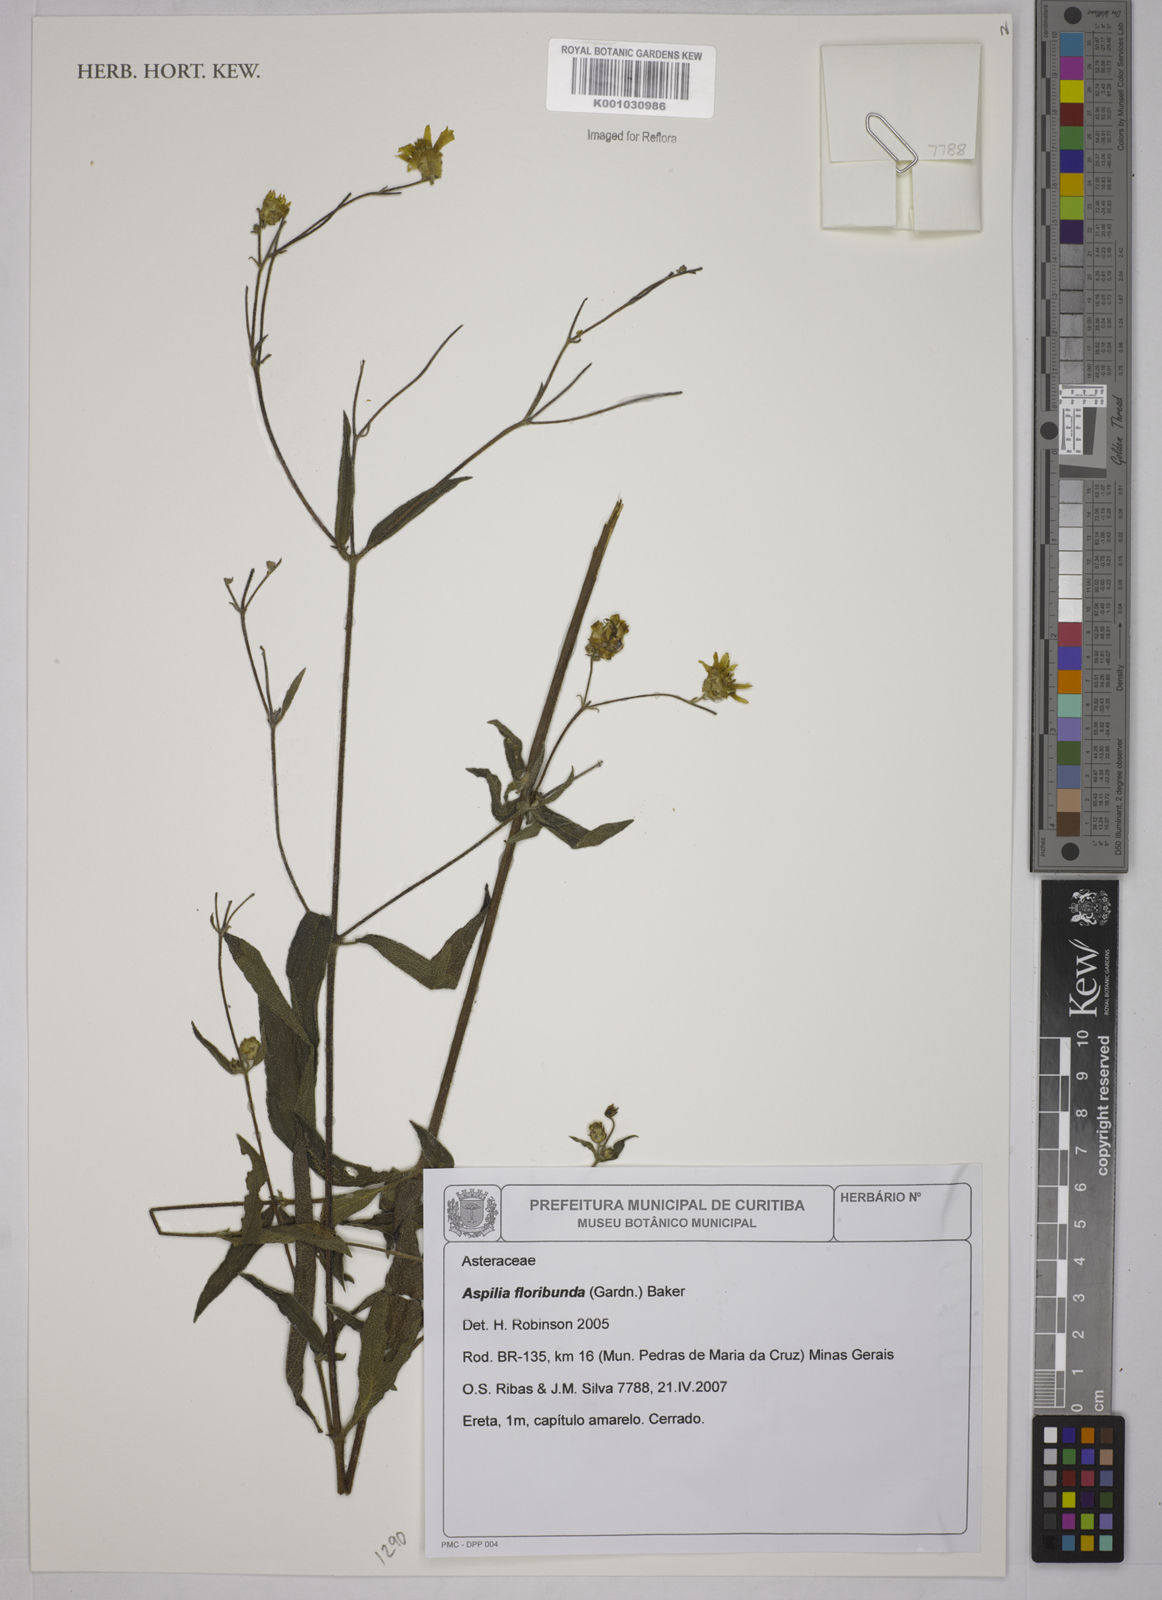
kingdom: Plantae
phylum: Tracheophyta
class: Magnoliopsida
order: Asterales
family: Asteraceae
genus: Wedelia
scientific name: Wedelia floribunda
